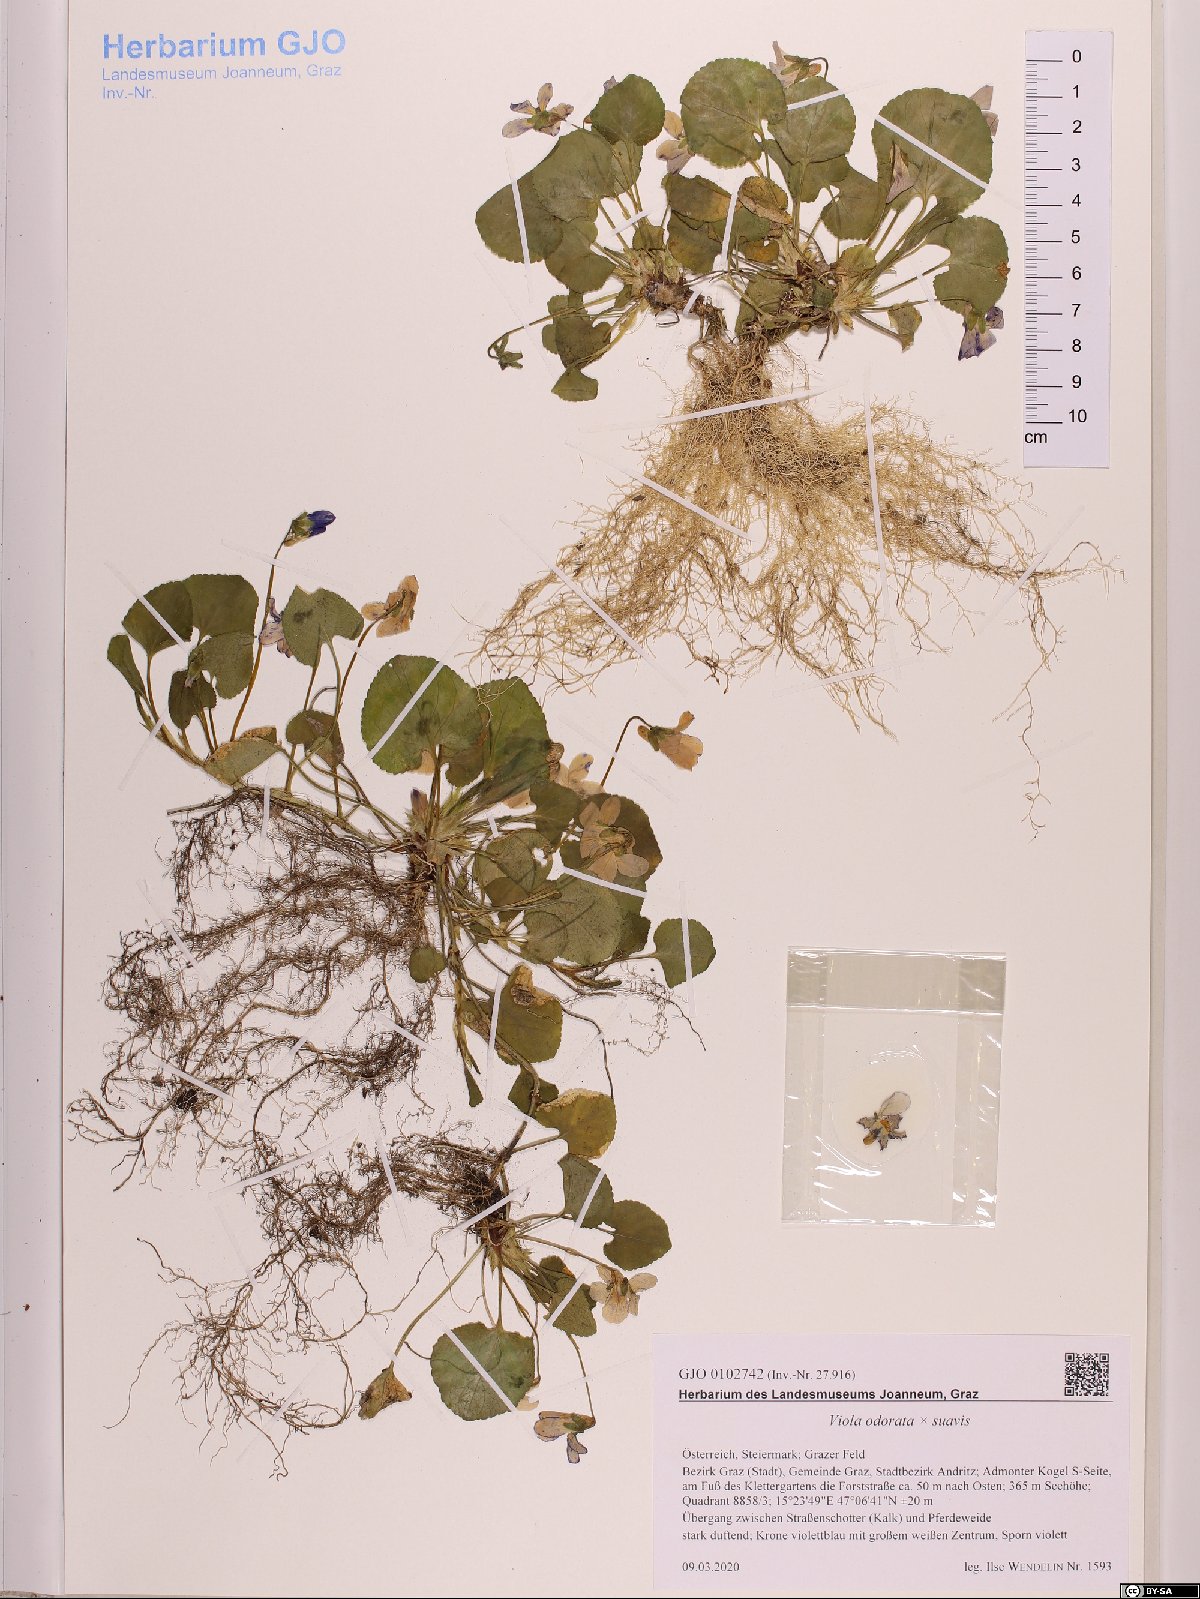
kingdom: Plantae
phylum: Tracheophyta
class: Magnoliopsida
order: Malpighiales
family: Violaceae
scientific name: Violaceae
